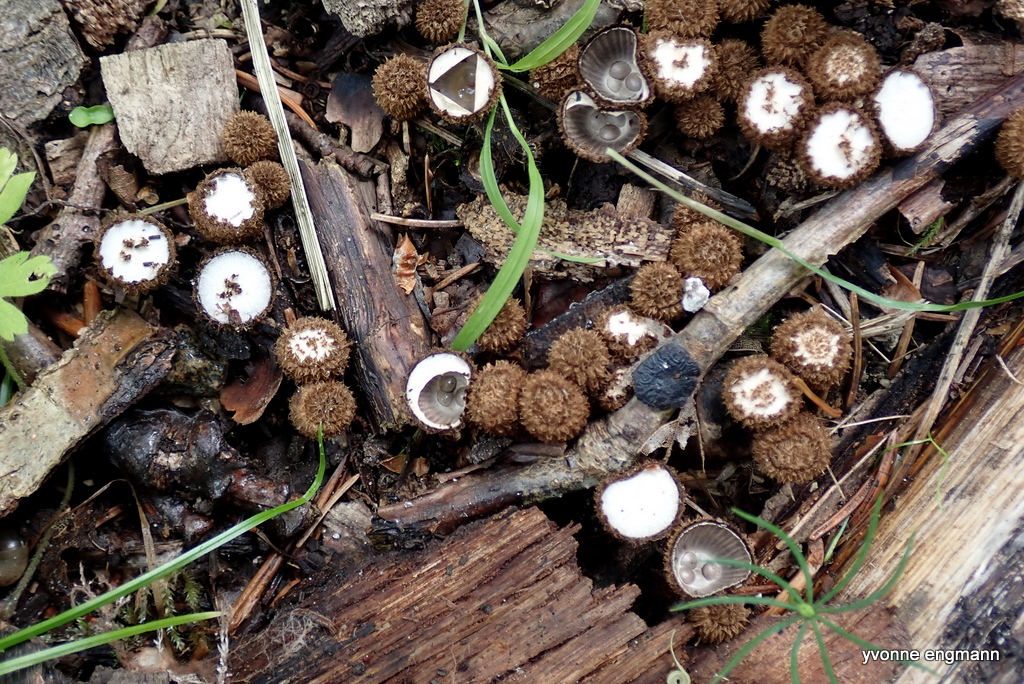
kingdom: Fungi
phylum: Basidiomycota
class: Agaricomycetes
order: Agaricales
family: Agaricaceae
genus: Cyathus
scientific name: Cyathus striatus
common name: stribet redesvamp
